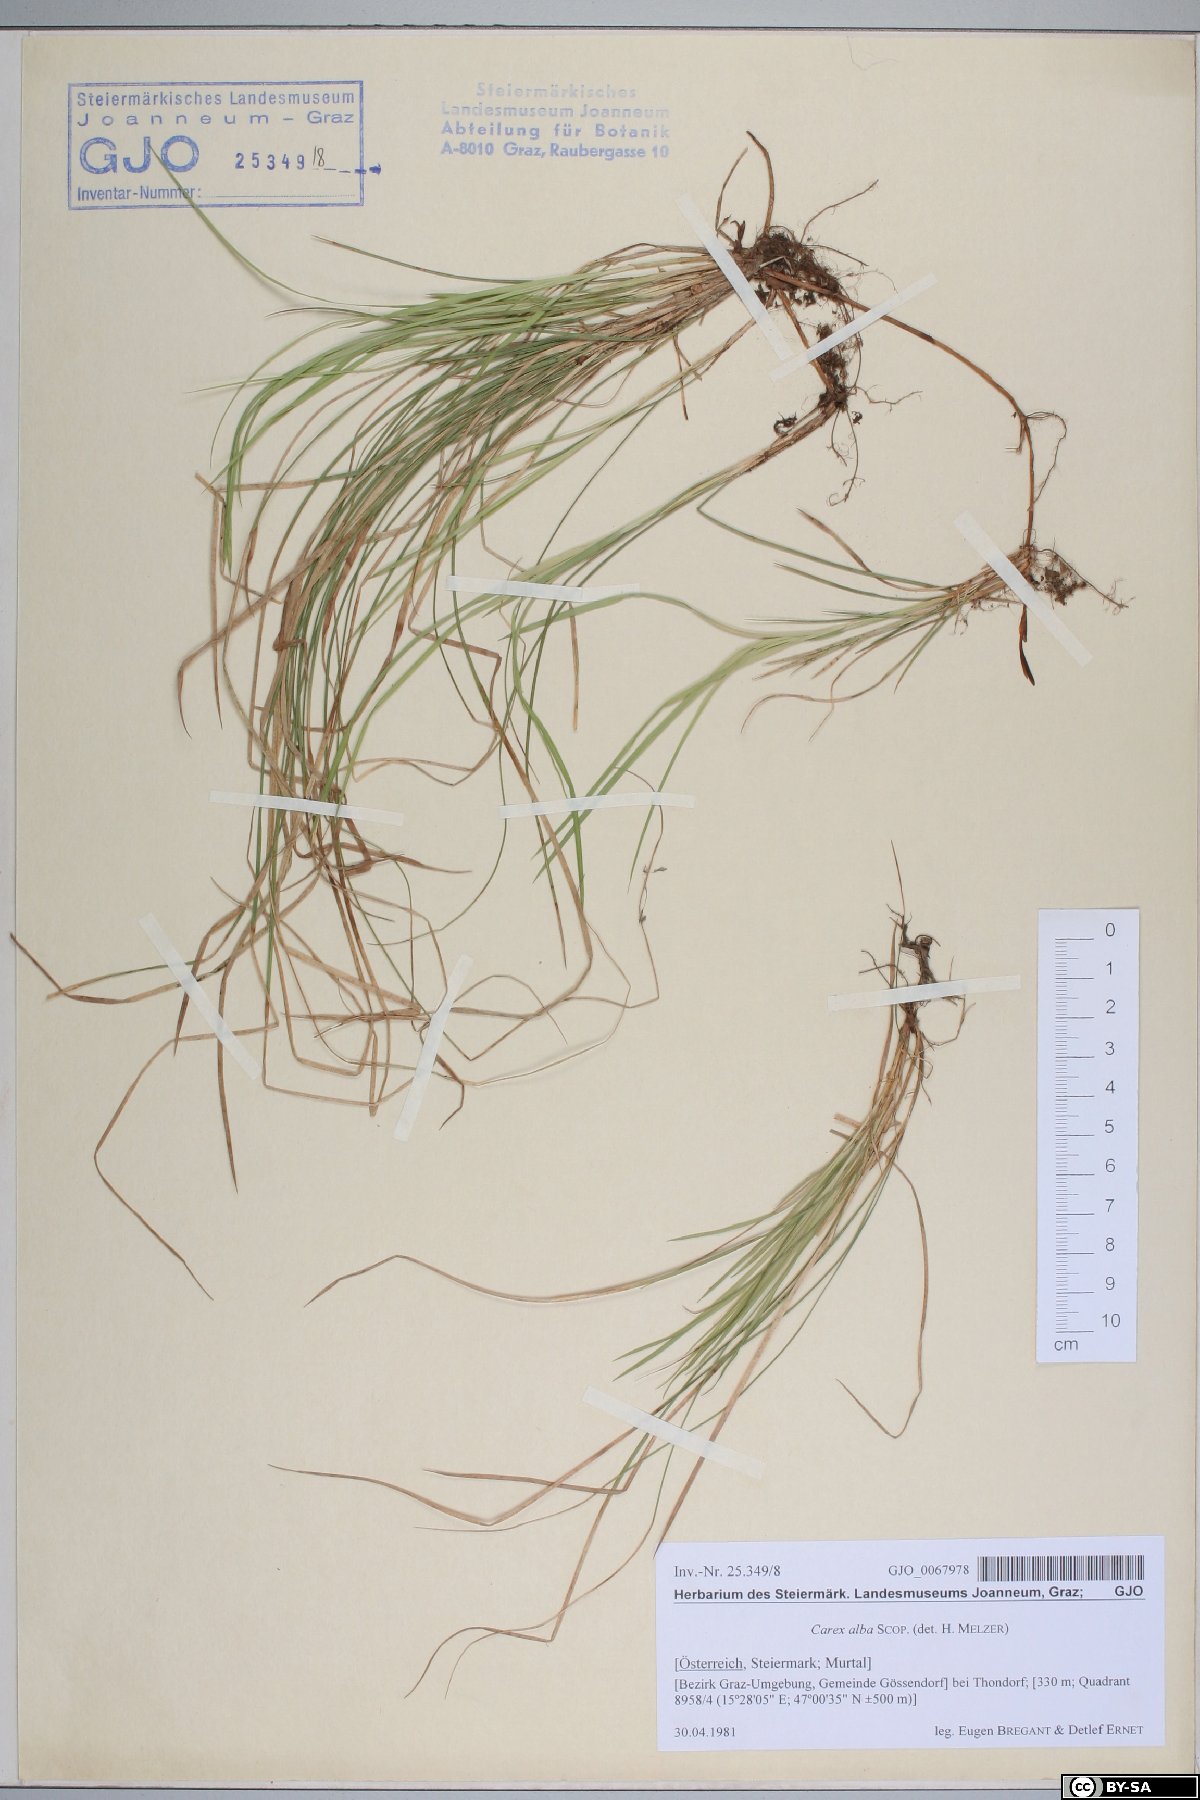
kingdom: Plantae
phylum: Tracheophyta
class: Liliopsida
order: Poales
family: Cyperaceae
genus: Carex
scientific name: Carex alba
